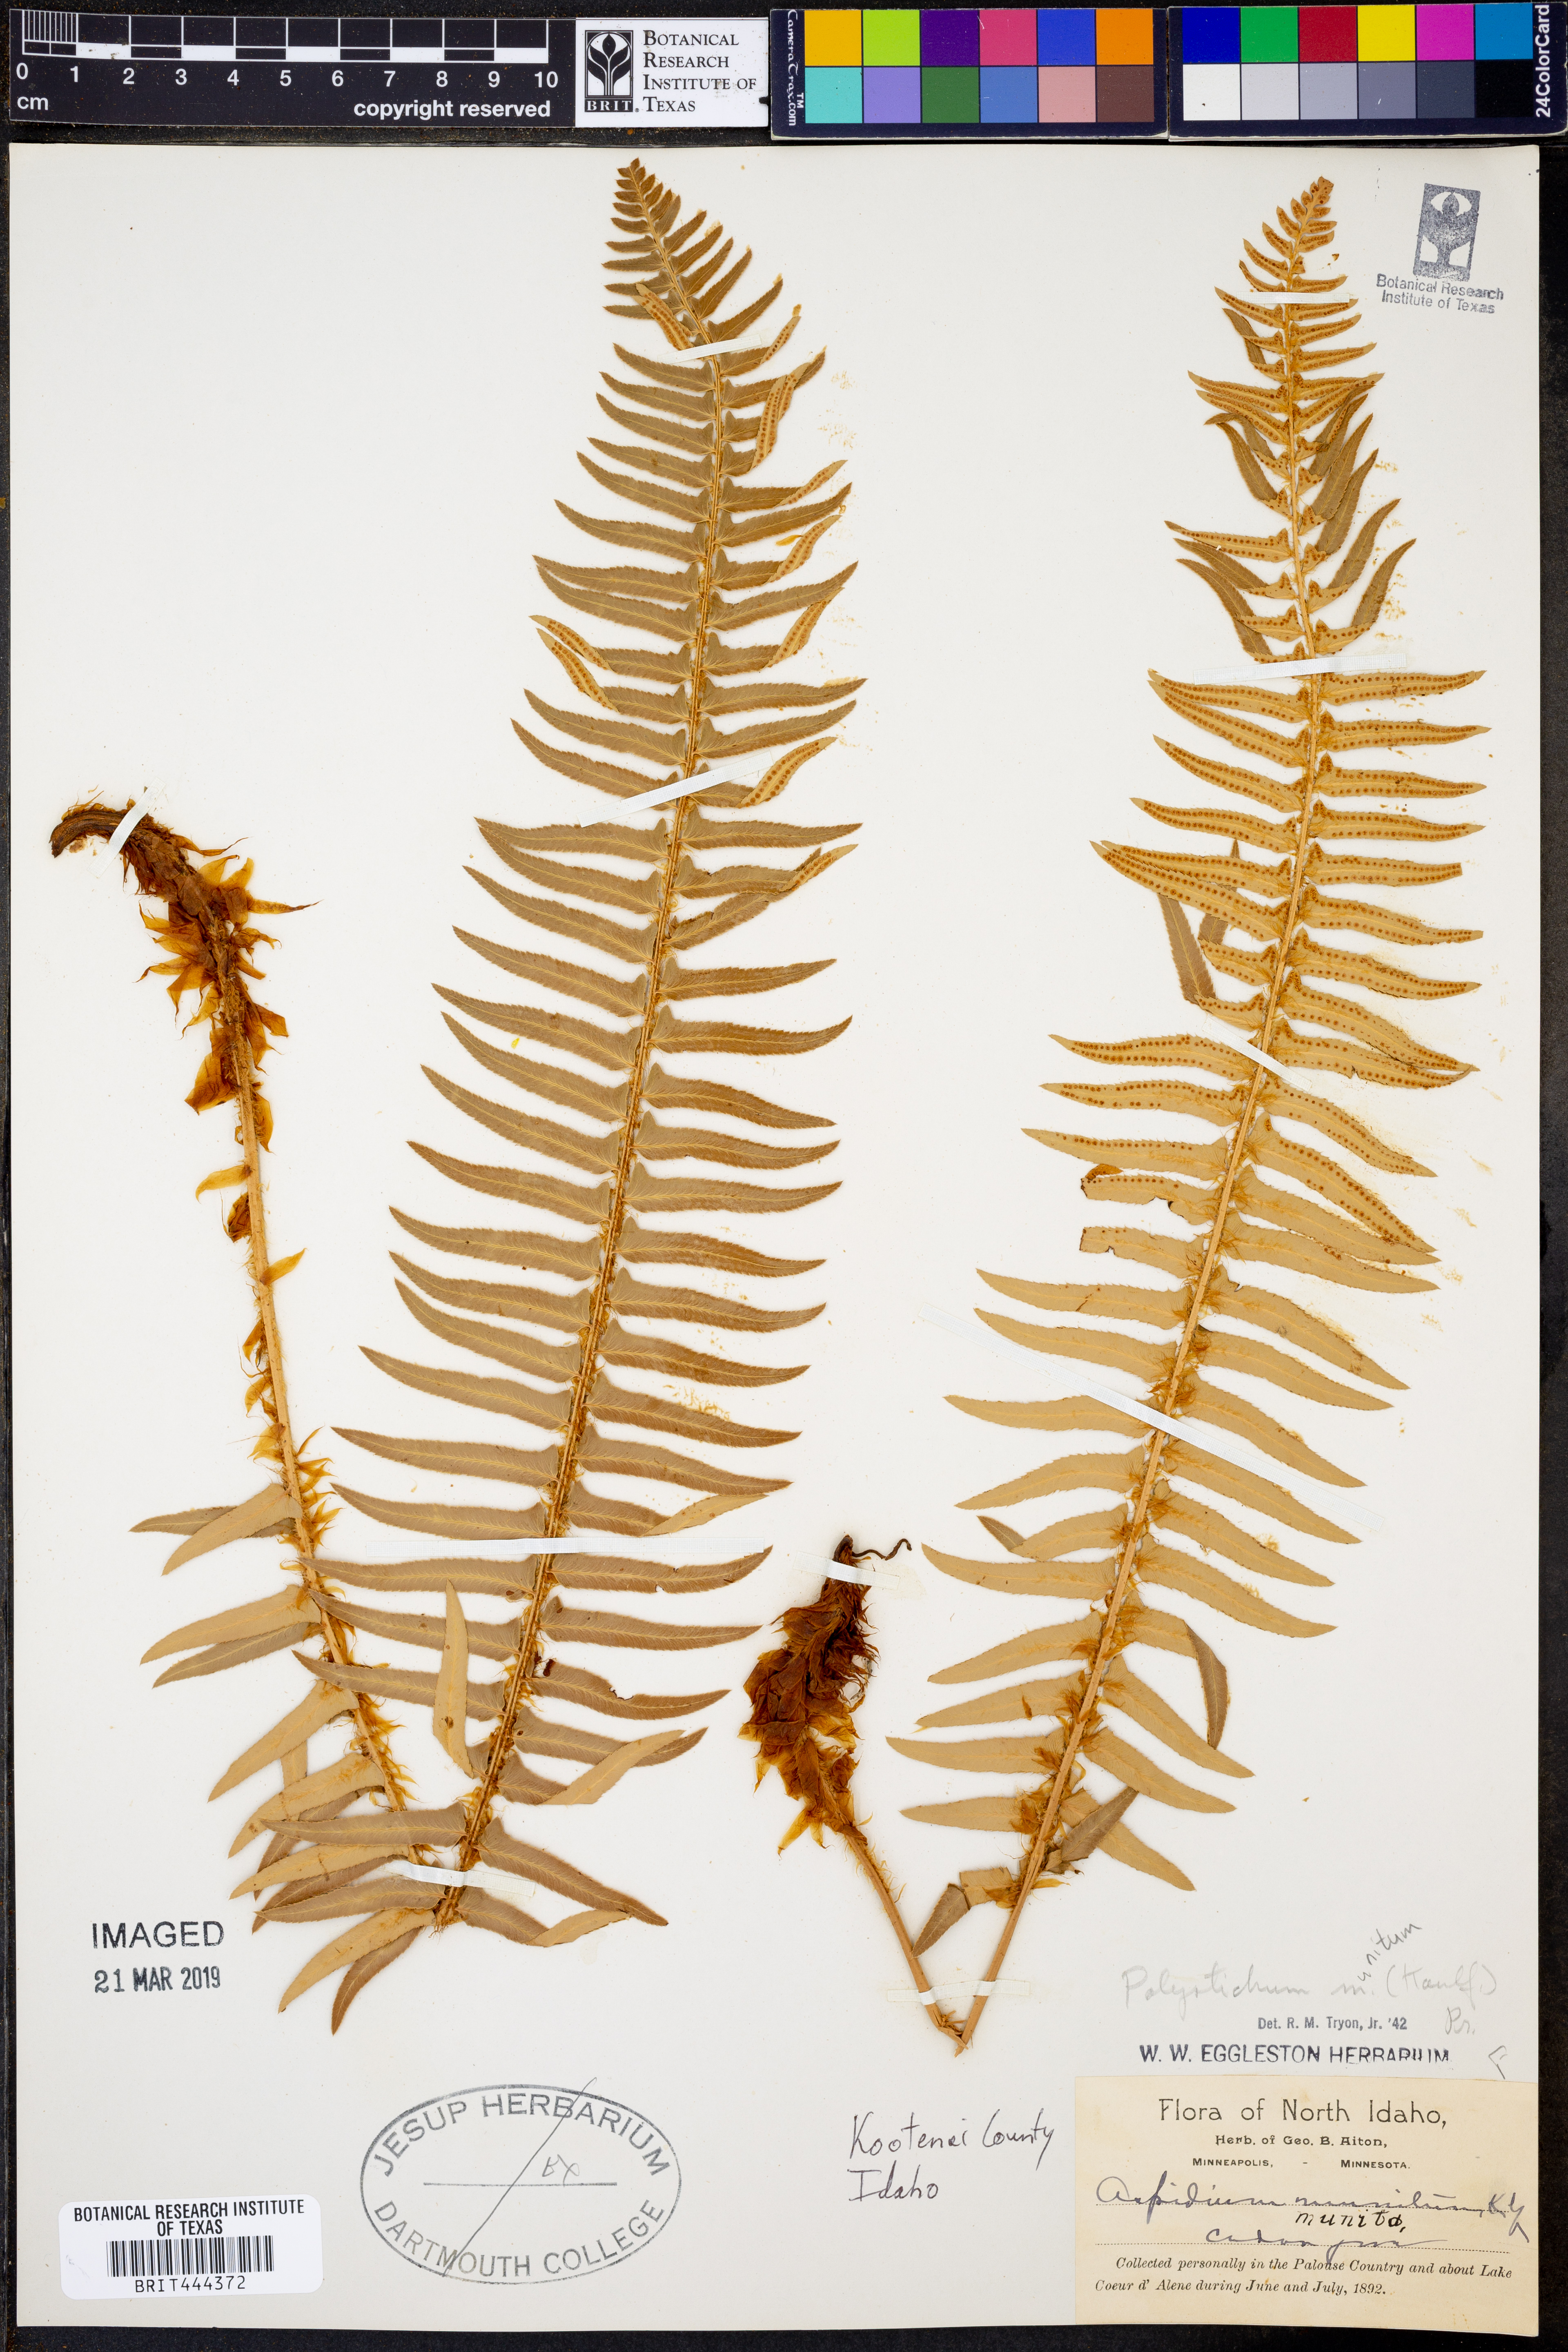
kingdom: Plantae
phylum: Tracheophyta
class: Polypodiopsida
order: Polypodiales
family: Dryopteridaceae
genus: Polystichum
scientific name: Polystichum munitum
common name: Western sword-fern
